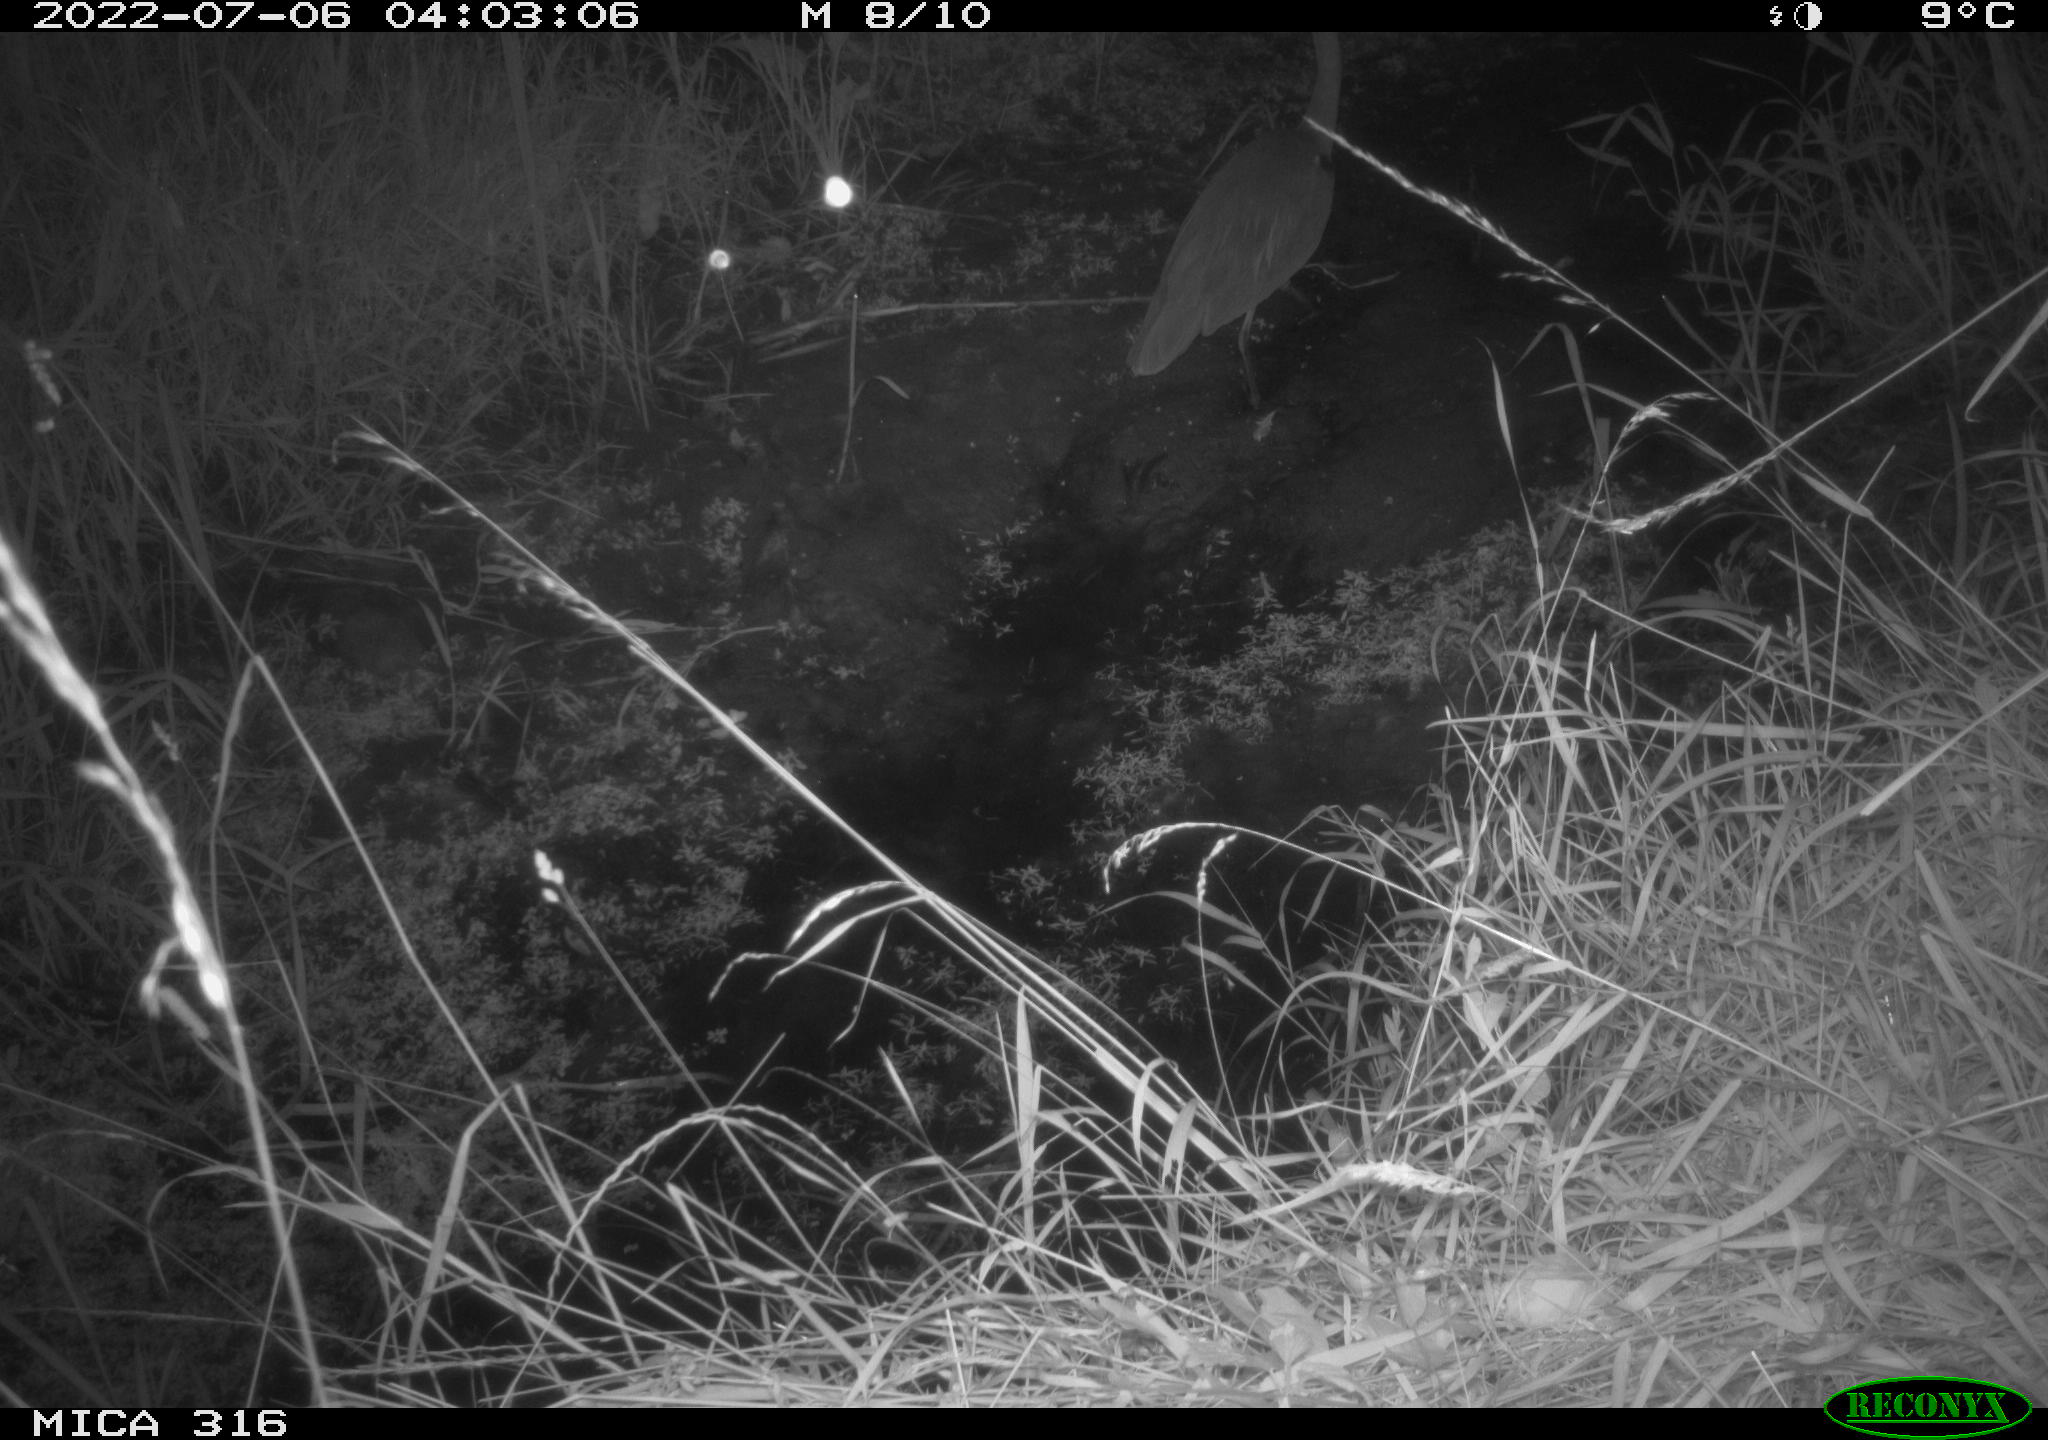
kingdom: Animalia
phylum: Chordata
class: Aves
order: Pelecaniformes
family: Ardeidae
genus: Ardea
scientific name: Ardea
